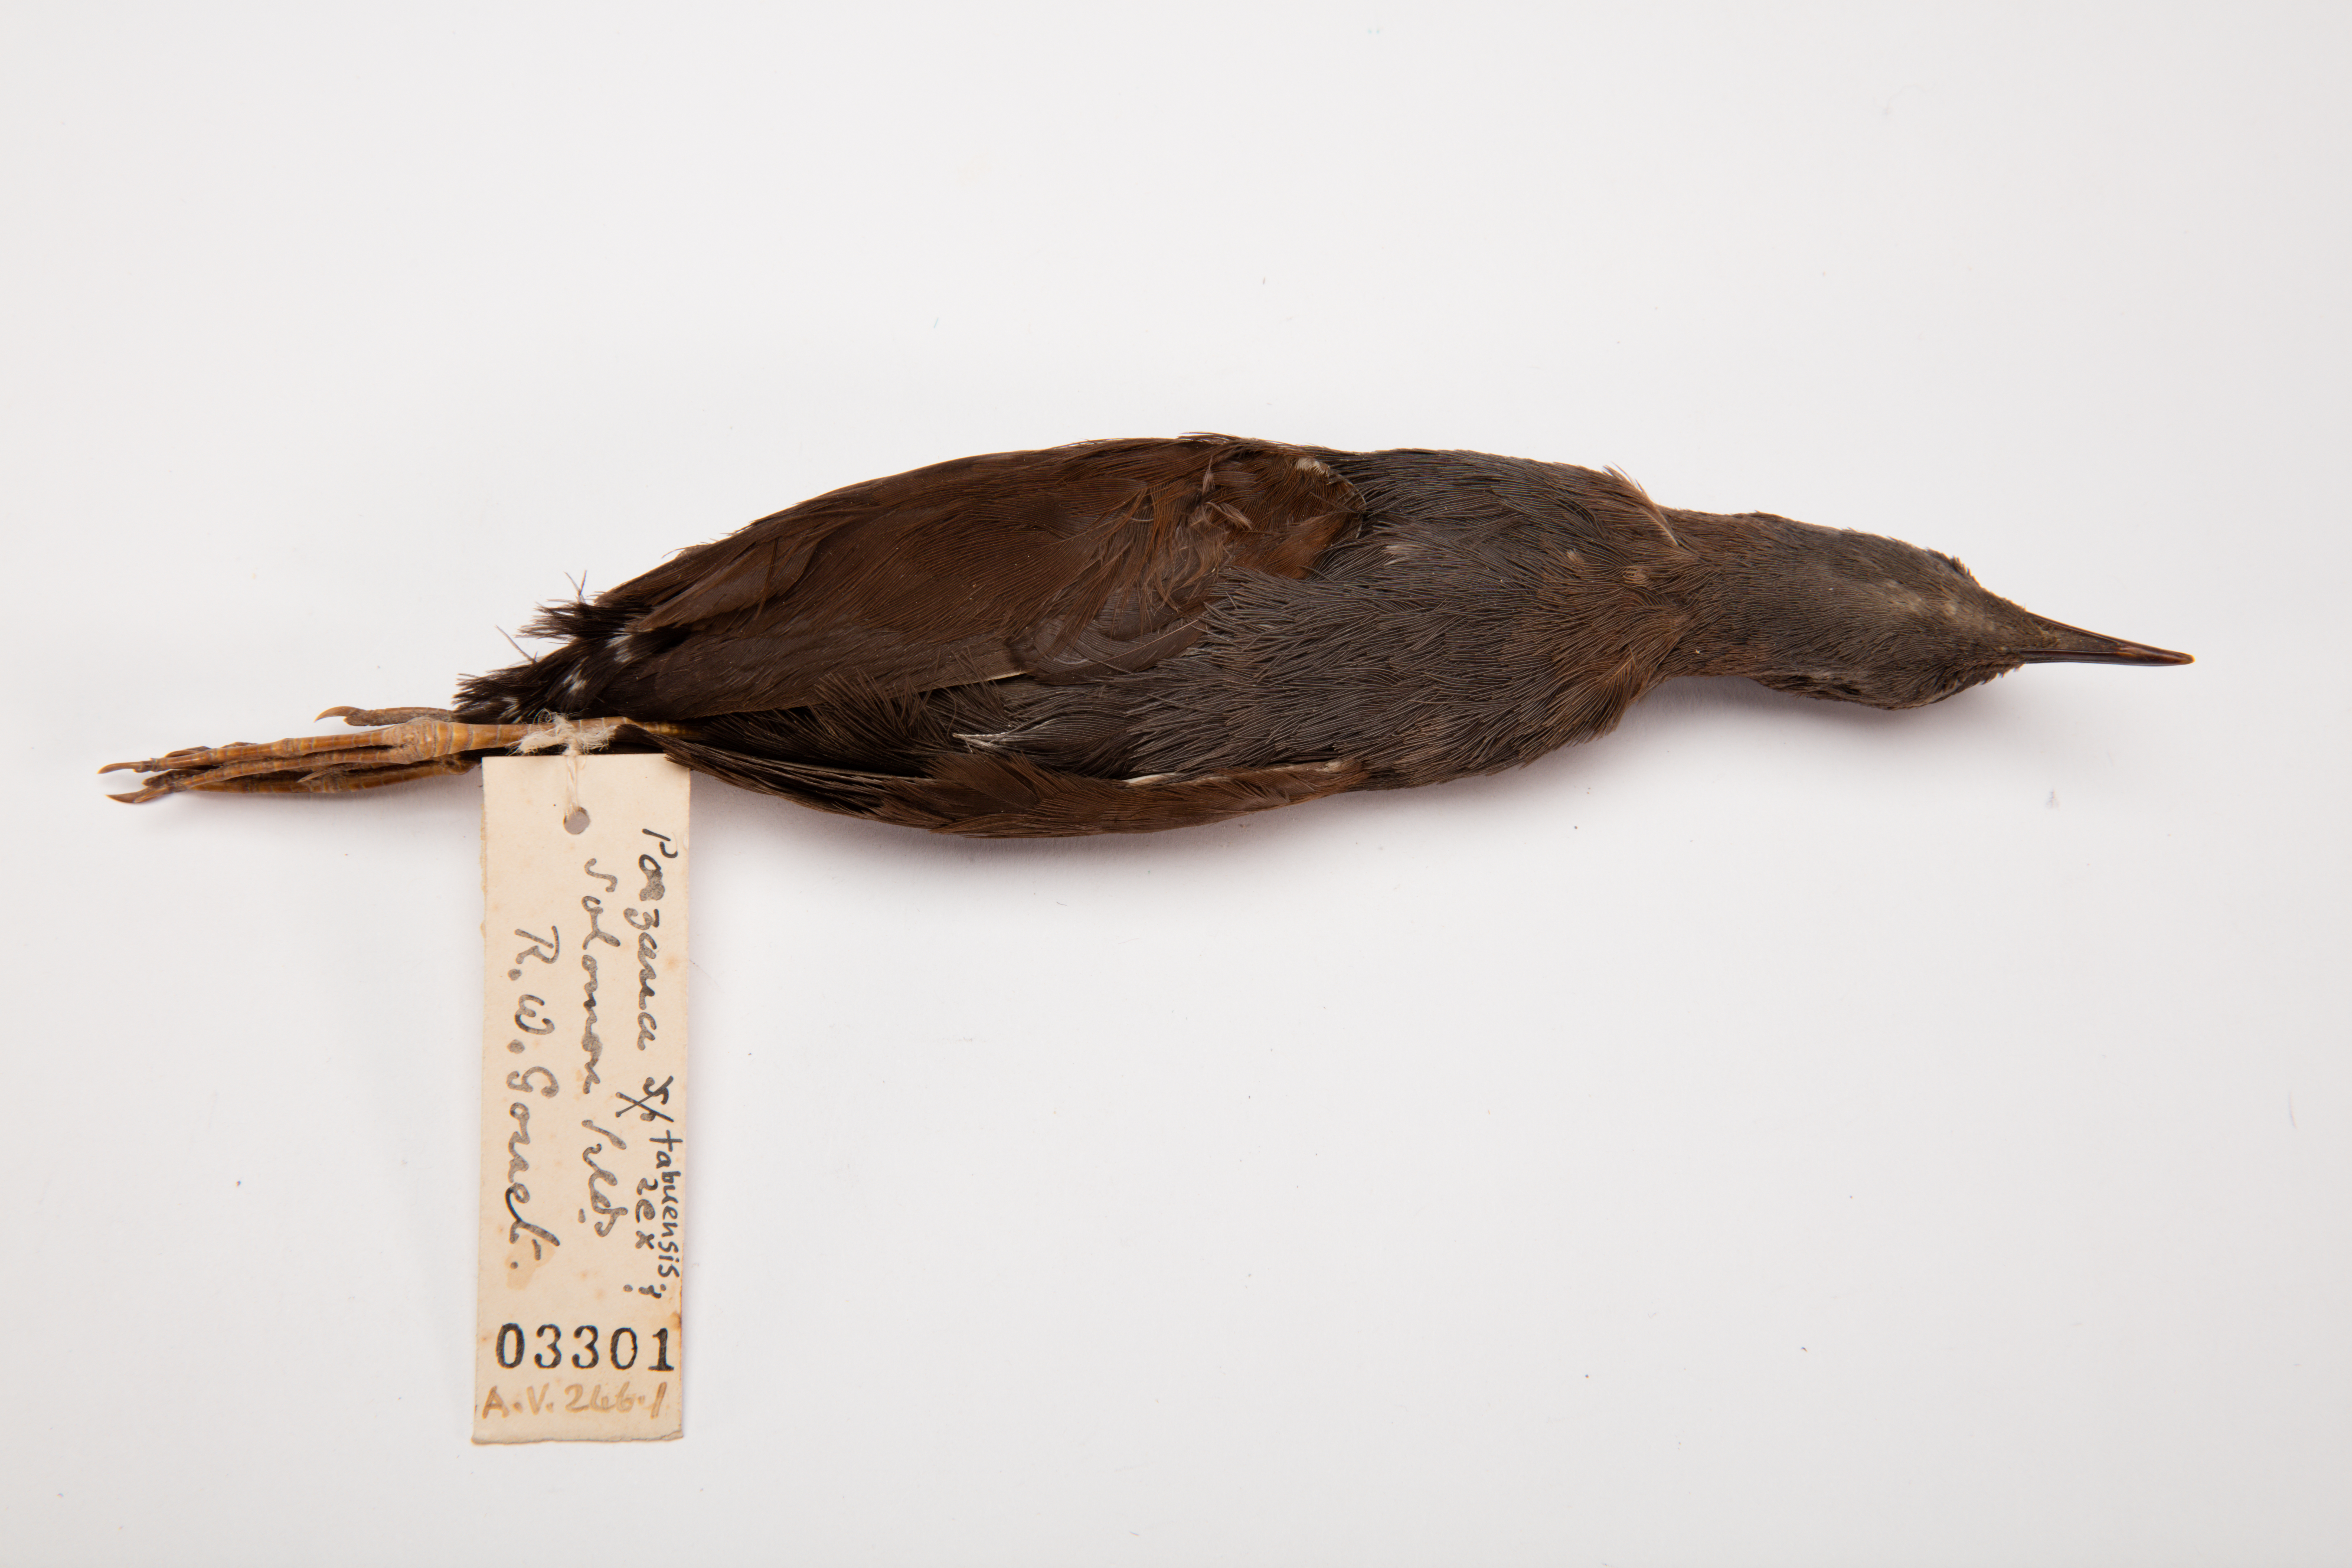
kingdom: Animalia
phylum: Chordata
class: Aves
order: Gruiformes
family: Rallidae
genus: Porzana
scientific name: Porzana tabuensis
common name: Spotless crake
